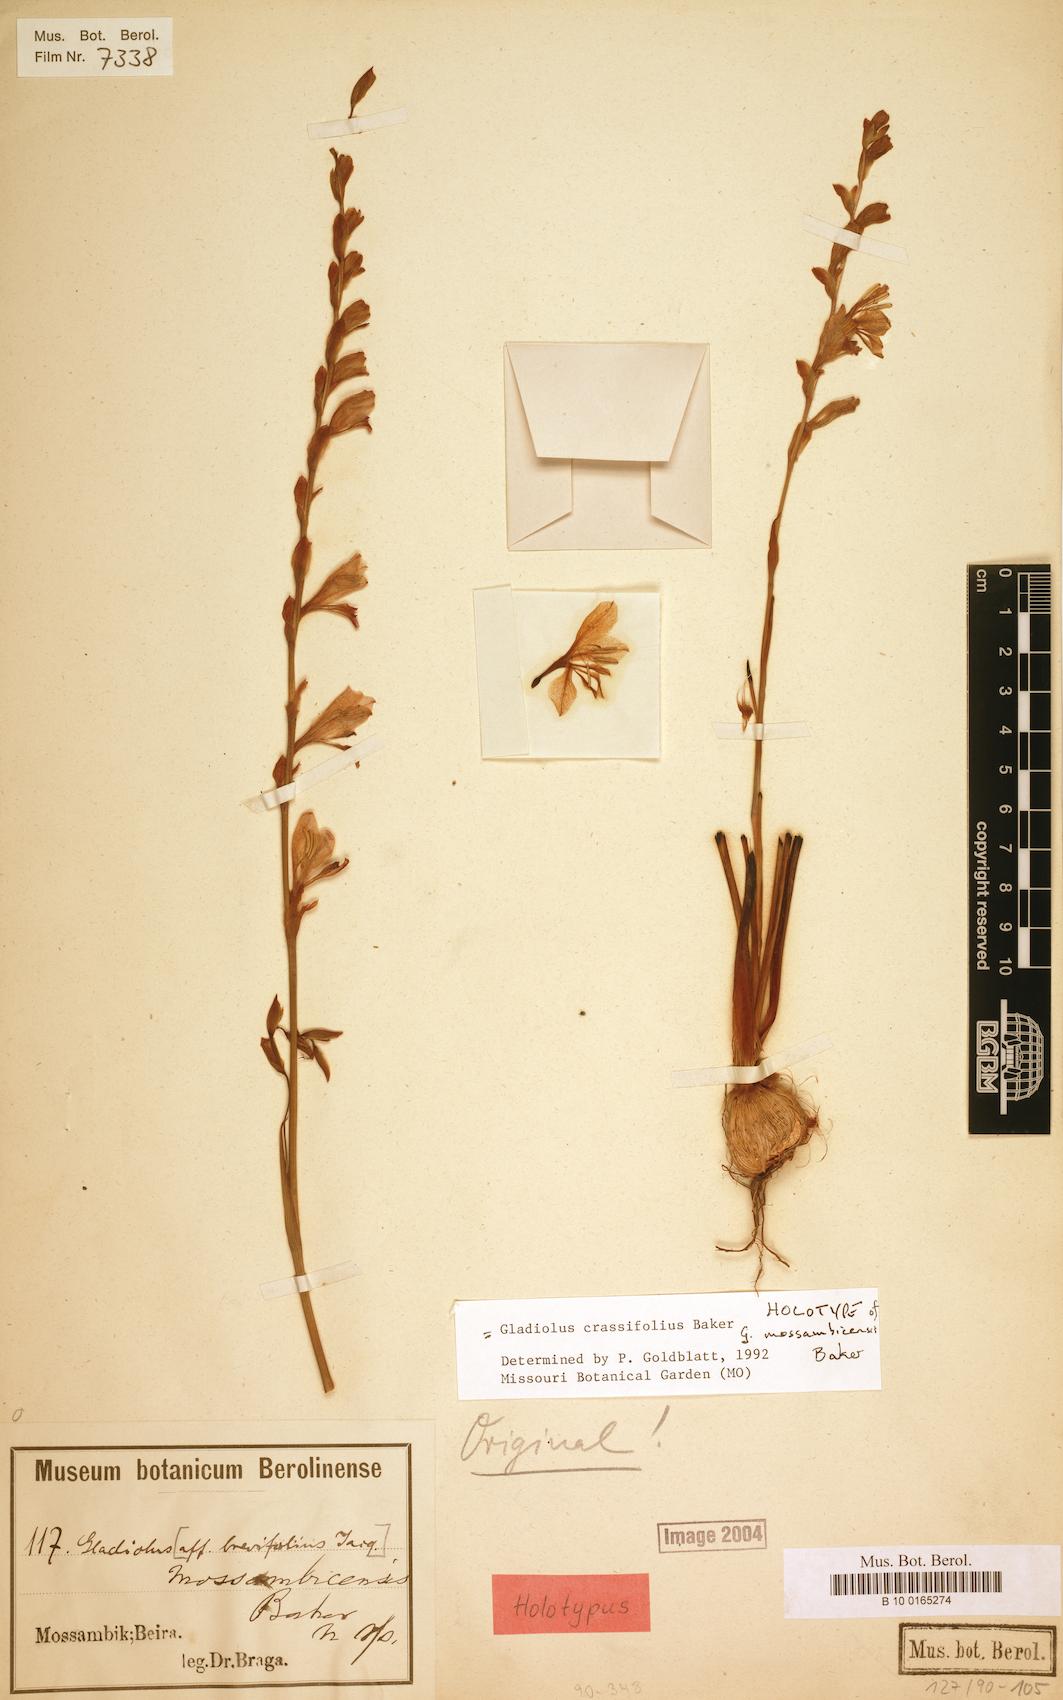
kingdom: Plantae
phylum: Tracheophyta
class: Liliopsida
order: Asparagales
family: Iridaceae
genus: Gladiolus
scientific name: Gladiolus crassifolius
